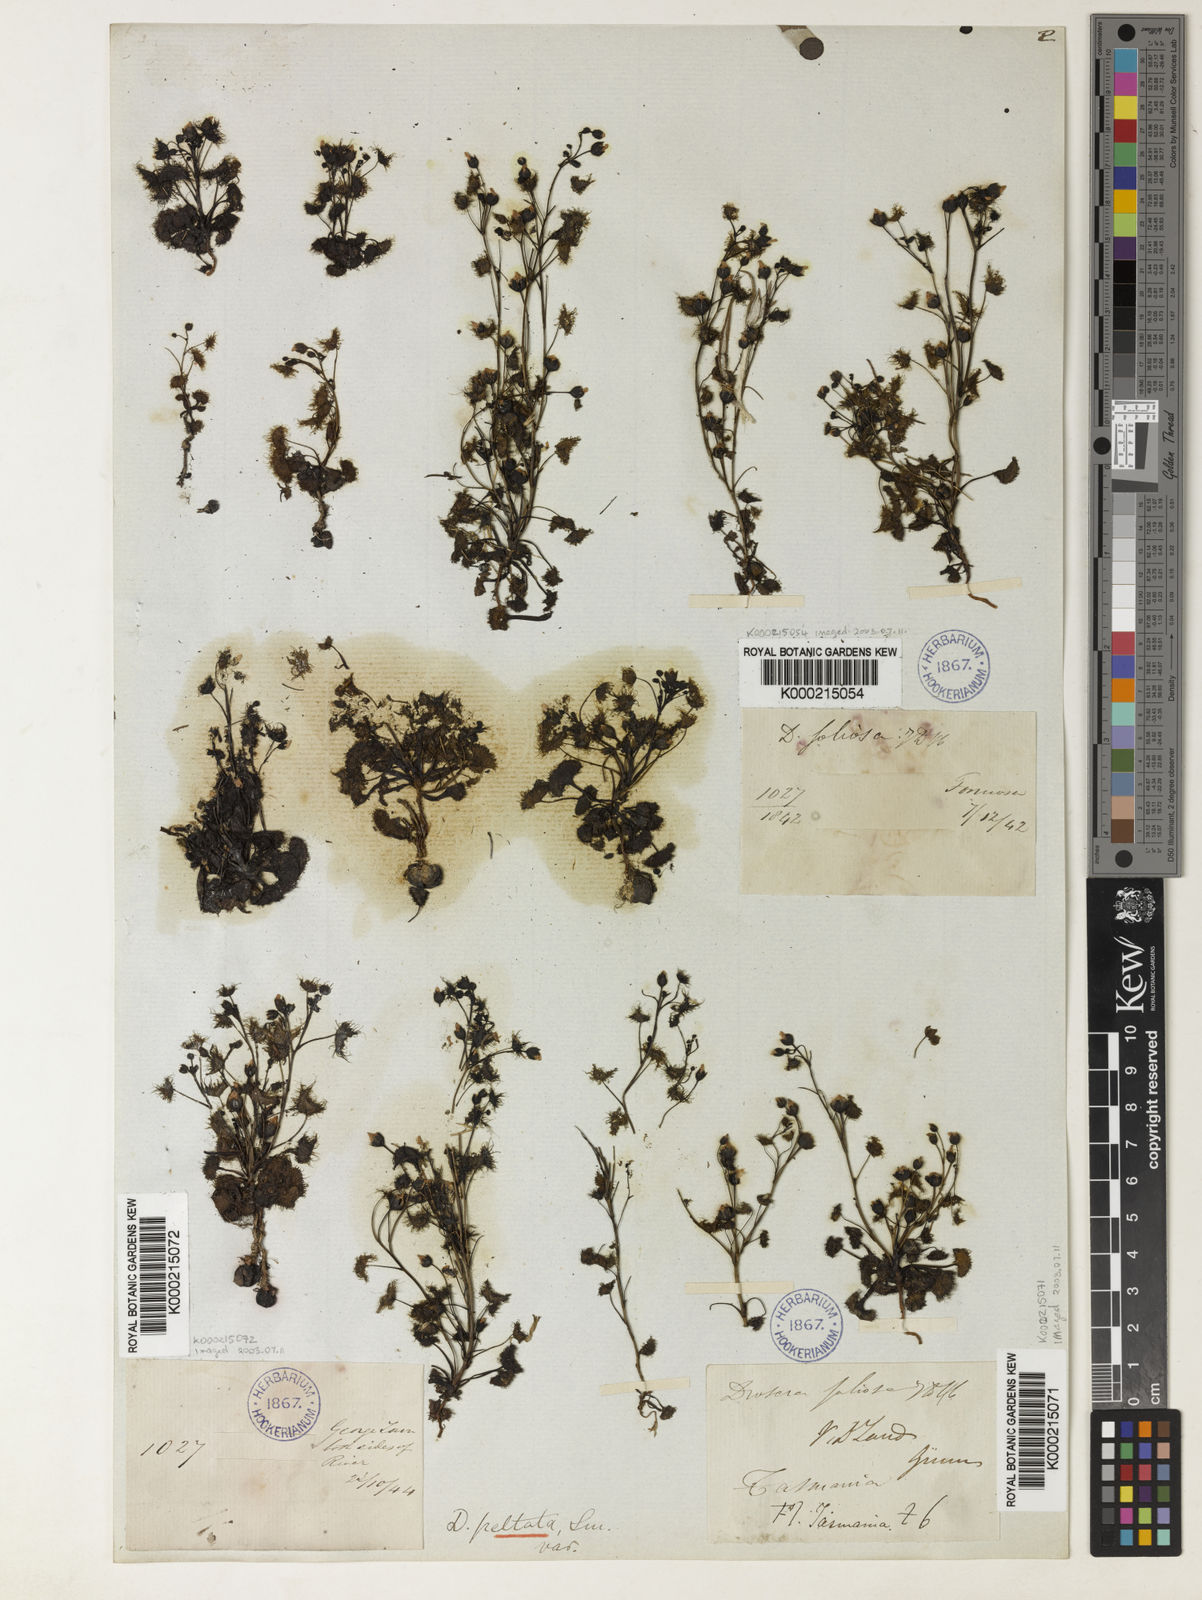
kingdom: Plantae
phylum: Tracheophyta
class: Magnoliopsida
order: Caryophyllales
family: Droseraceae
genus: Drosera
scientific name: Drosera hookeri
